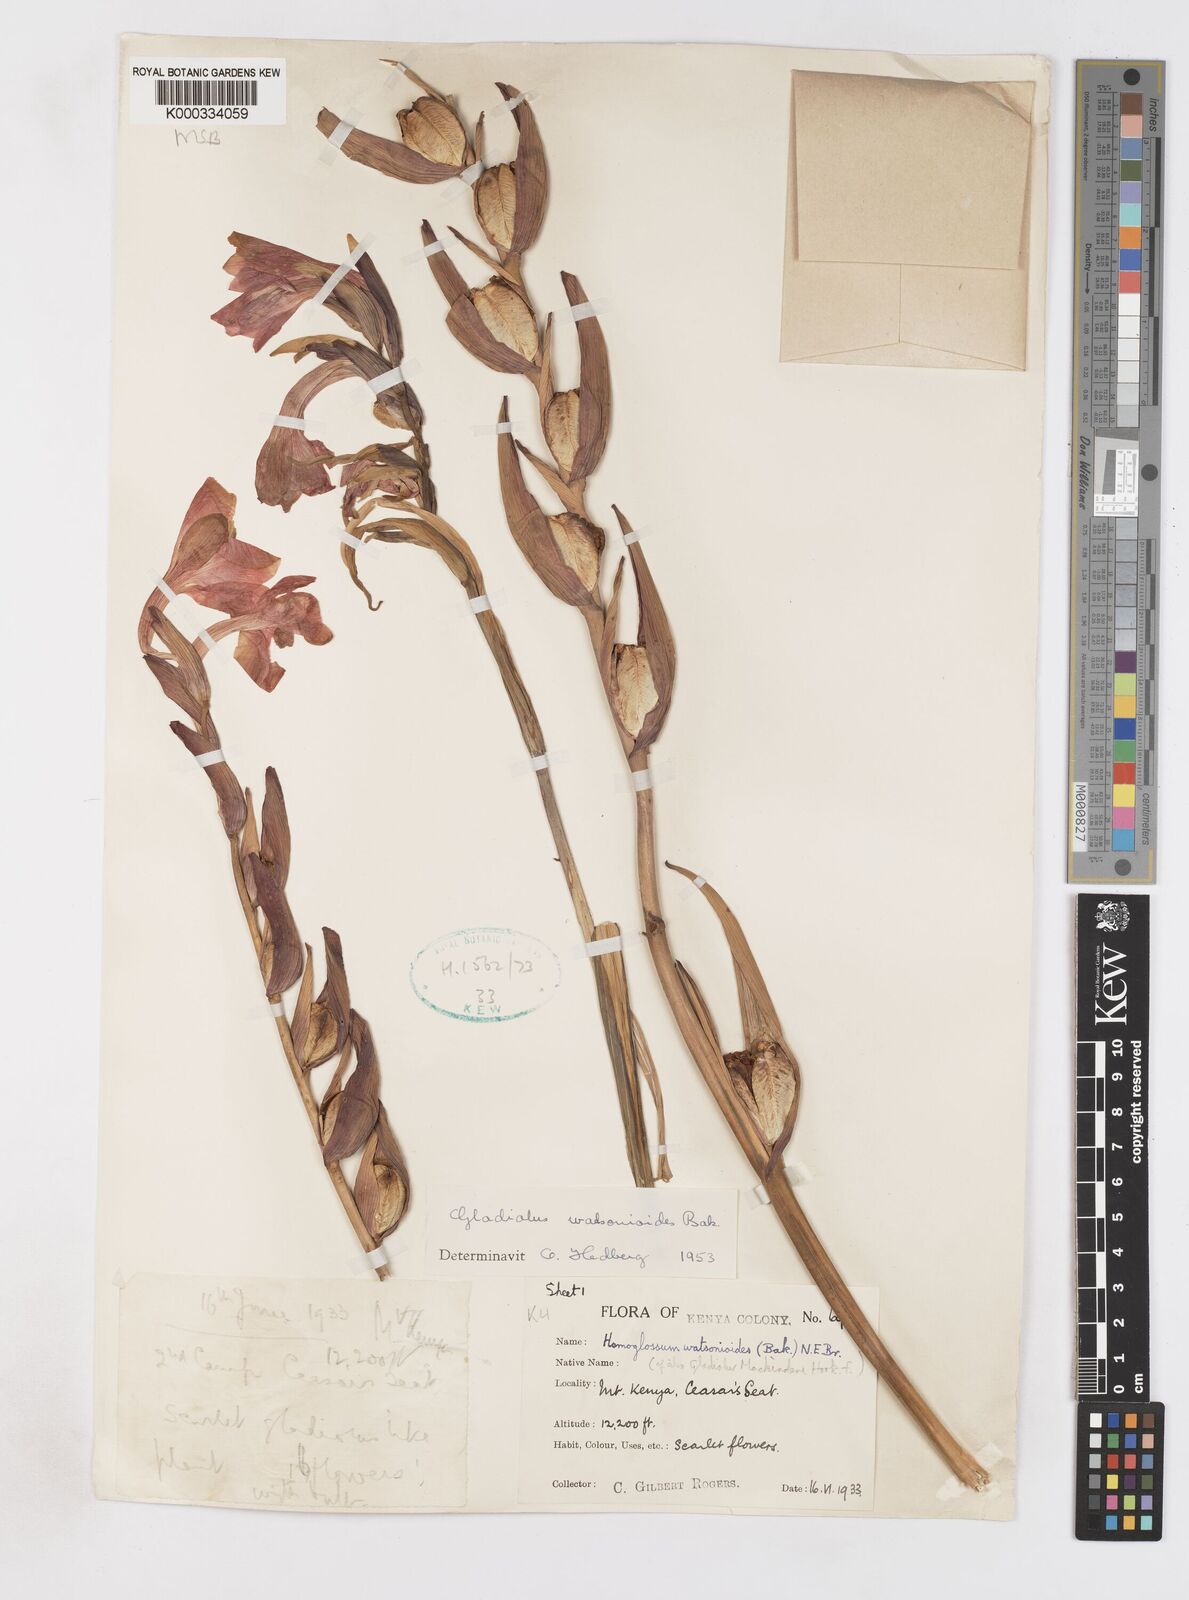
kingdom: Plantae
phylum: Tracheophyta
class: Liliopsida
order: Asparagales
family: Iridaceae
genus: Gladiolus
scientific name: Gladiolus watsonioides
